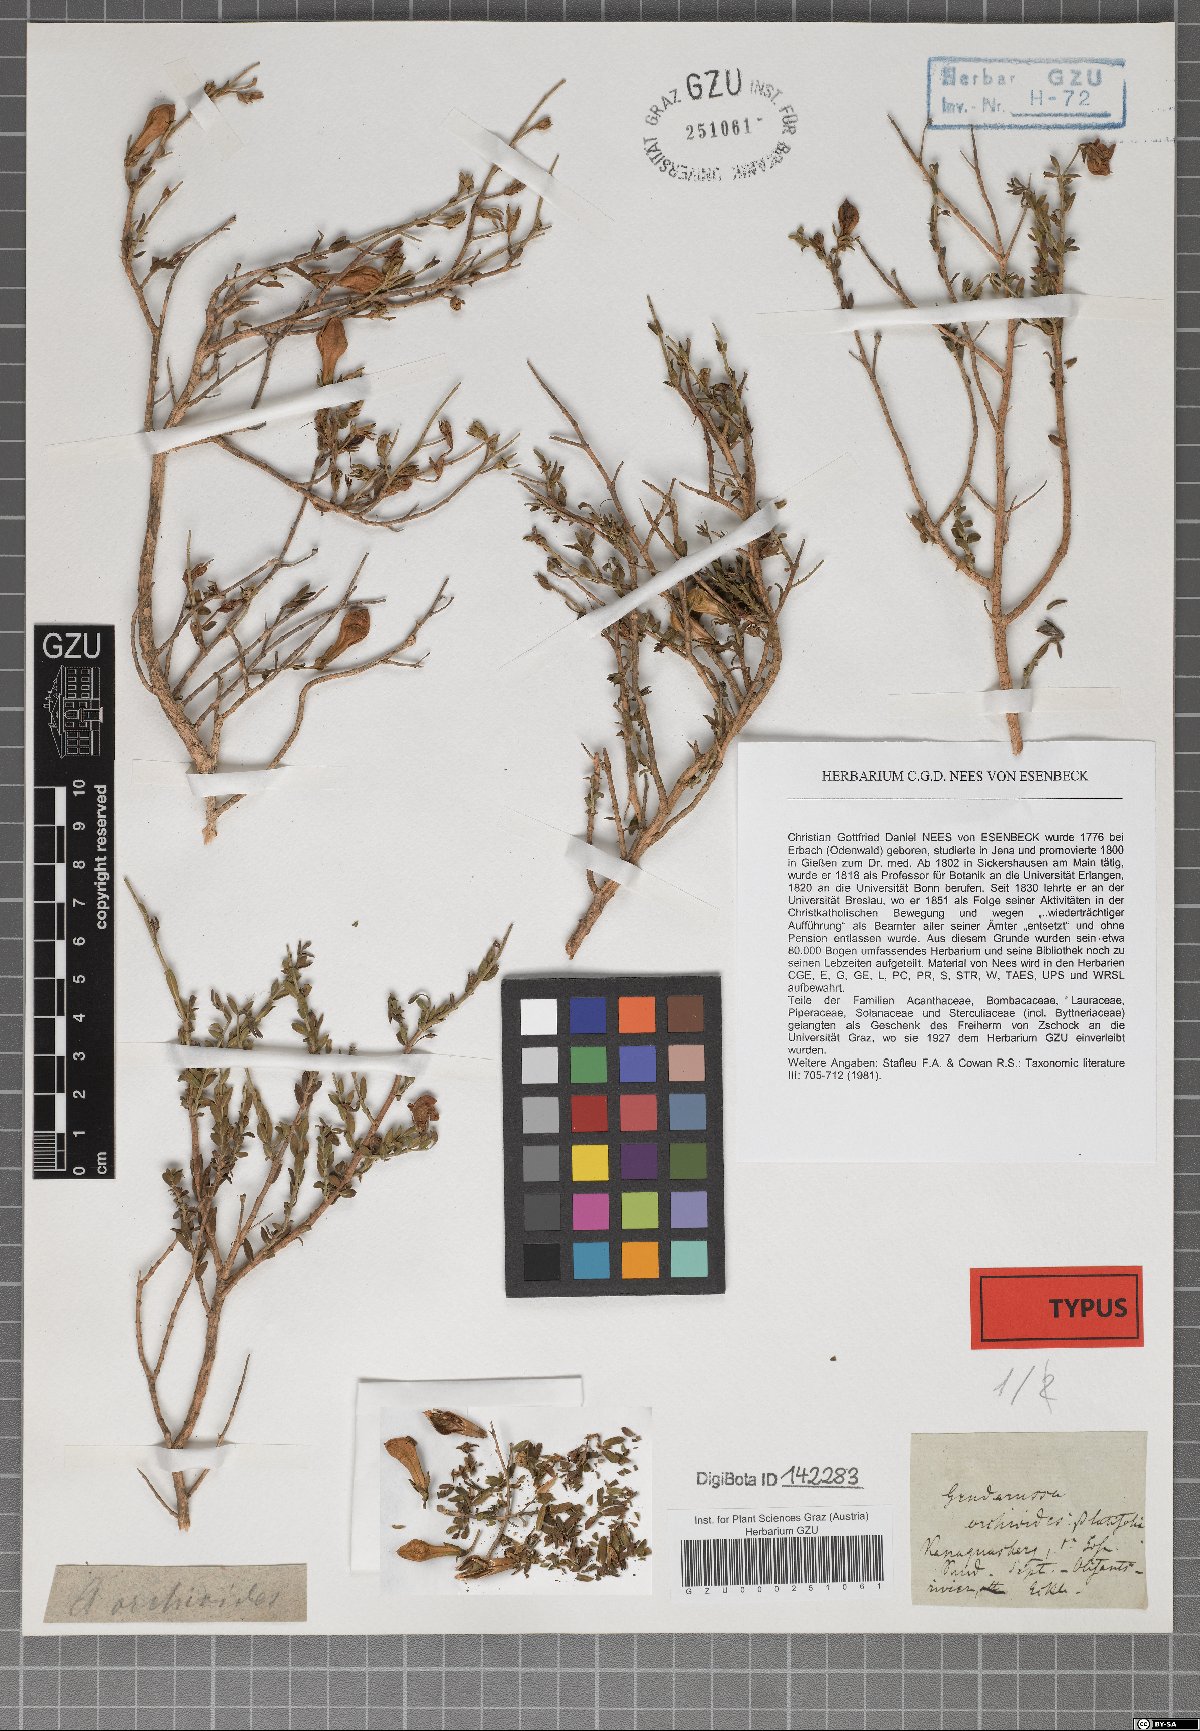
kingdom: Plantae
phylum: Tracheophyta
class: Magnoliopsida
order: Lamiales
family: Acanthaceae
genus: Justicia
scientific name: Justicia cuneata
